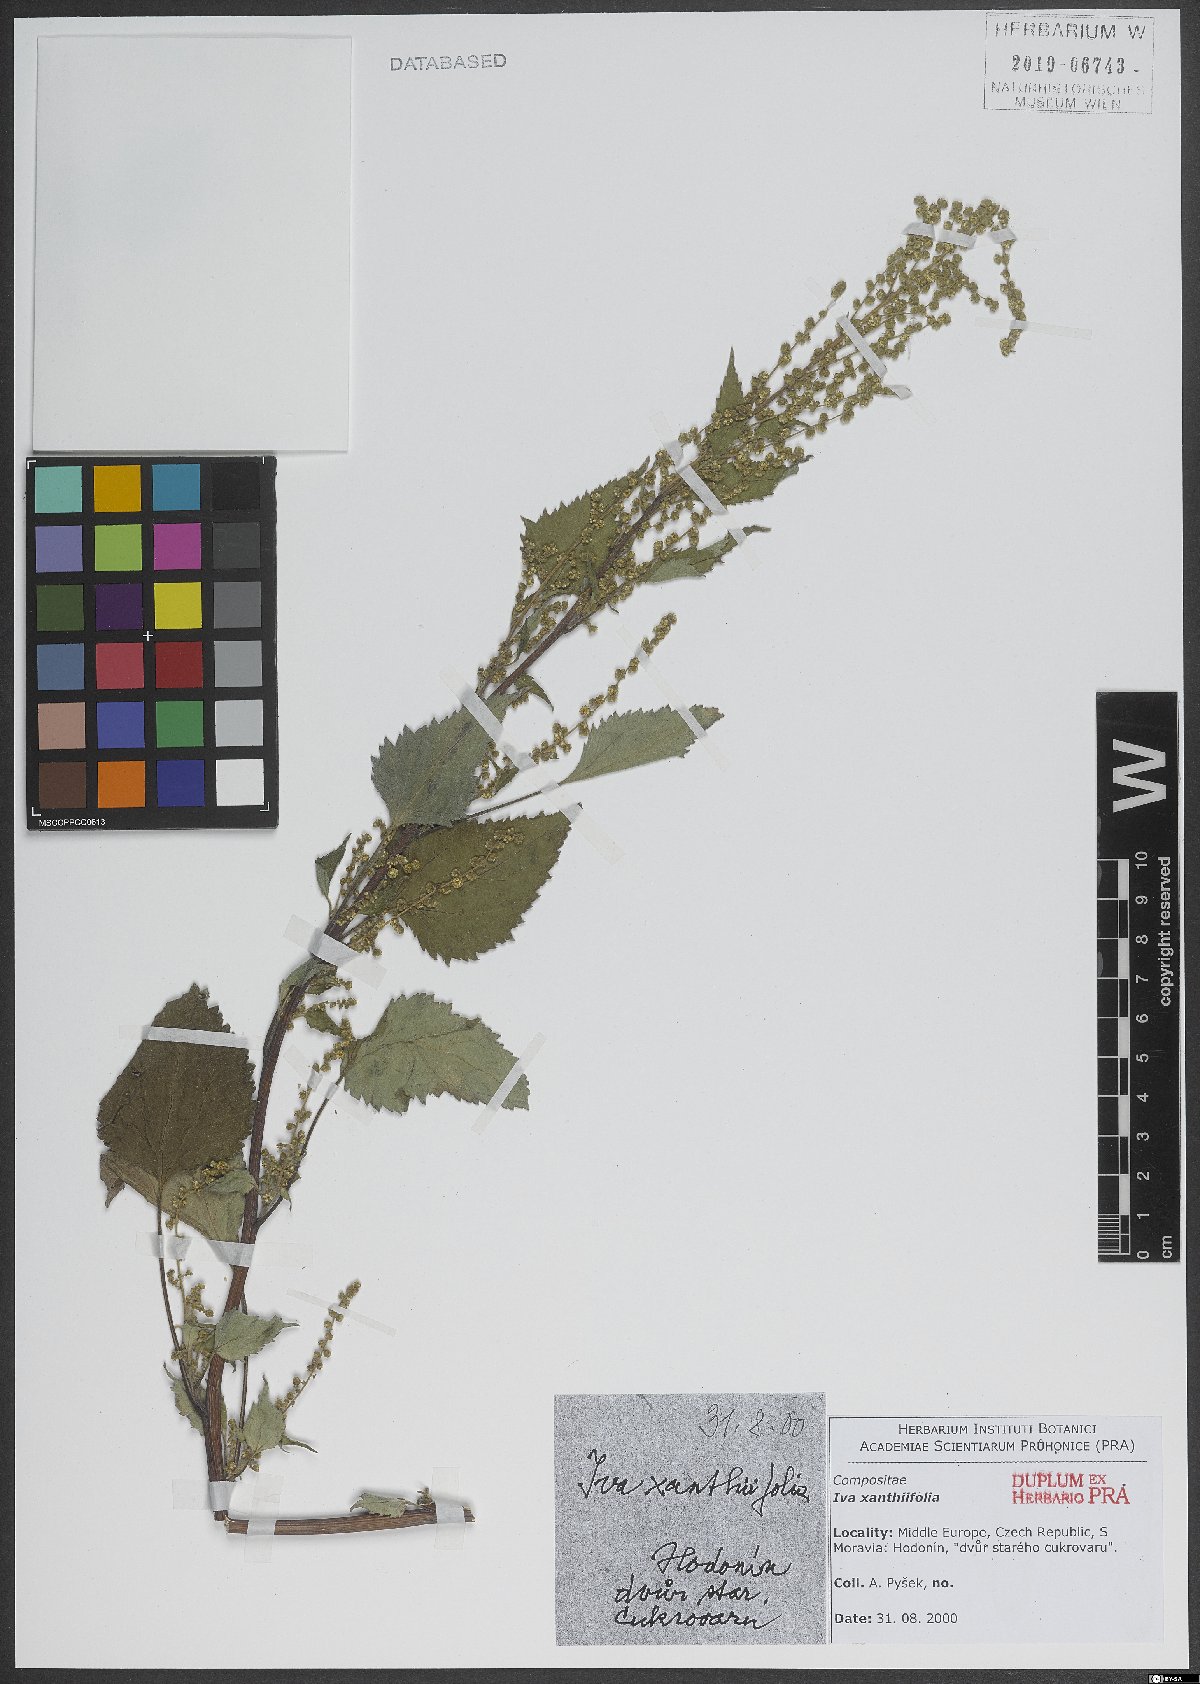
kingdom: Plantae
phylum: Tracheophyta
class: Magnoliopsida
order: Asterales
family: Asteraceae
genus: Cyclachaena
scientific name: Cyclachaena xanthiifolia
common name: Giant sumpweed
